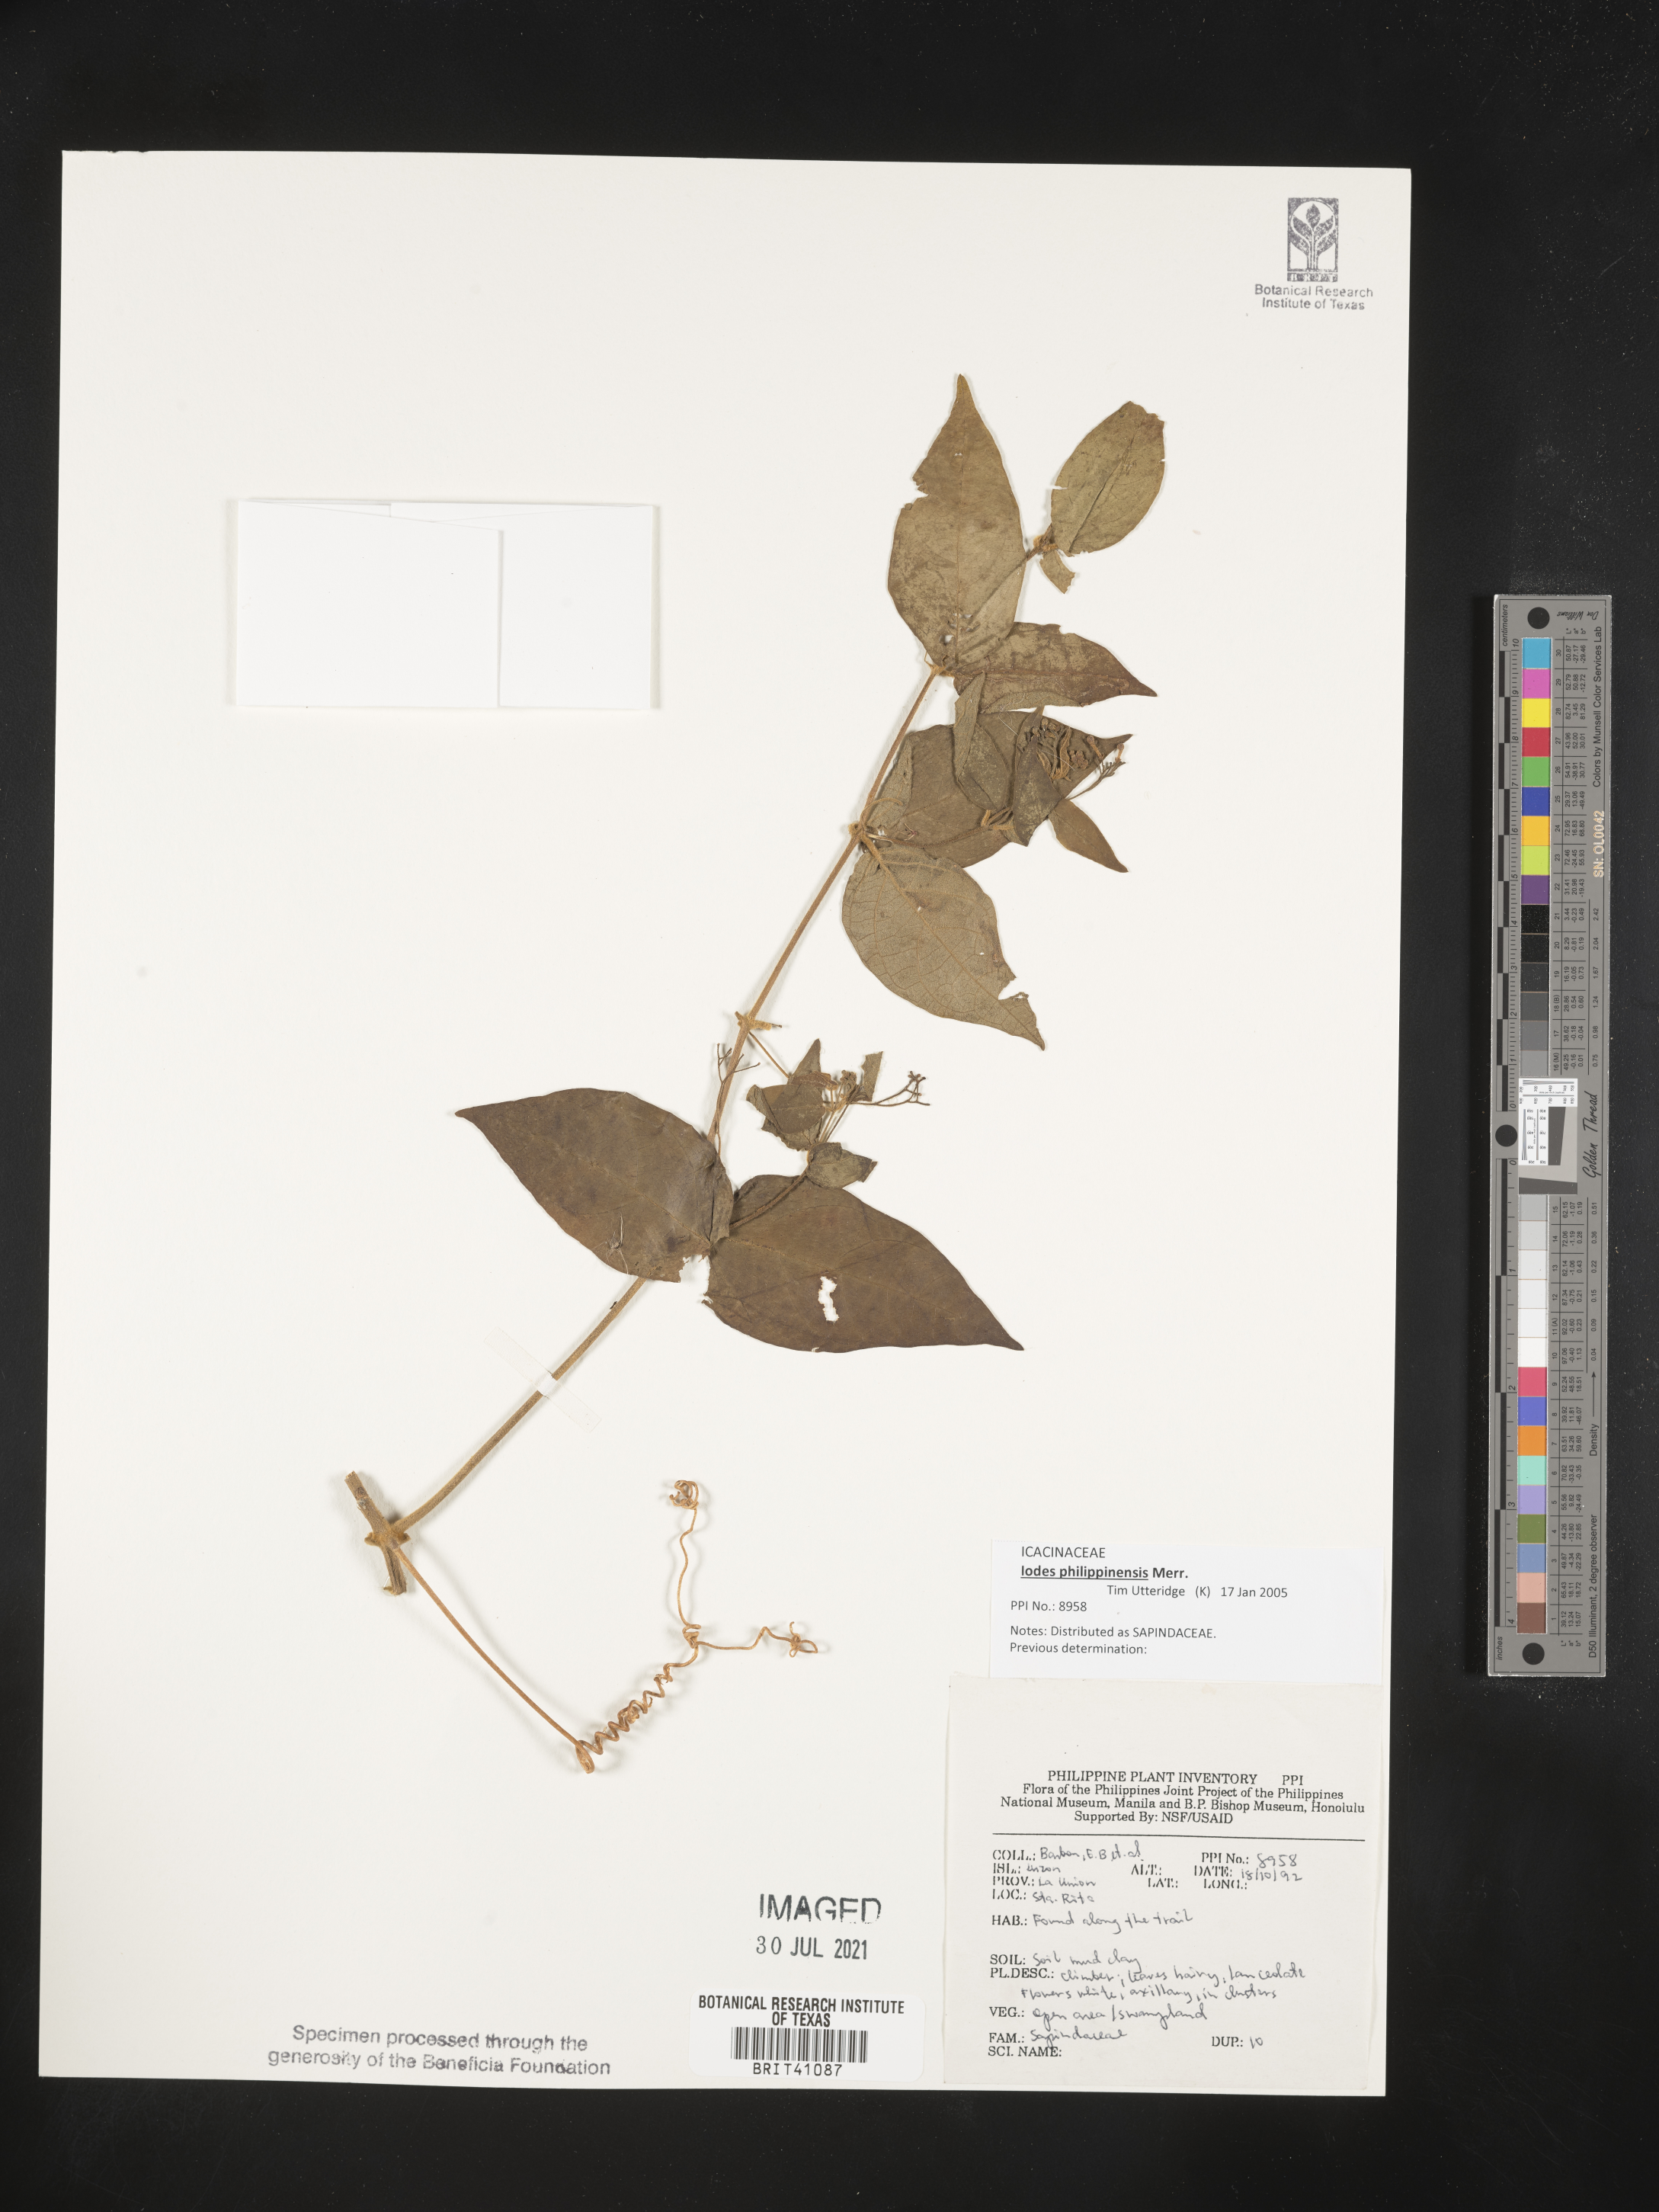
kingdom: Plantae
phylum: Tracheophyta
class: Magnoliopsida
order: Sapindales
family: Sapindaceae
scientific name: Sapindaceae
